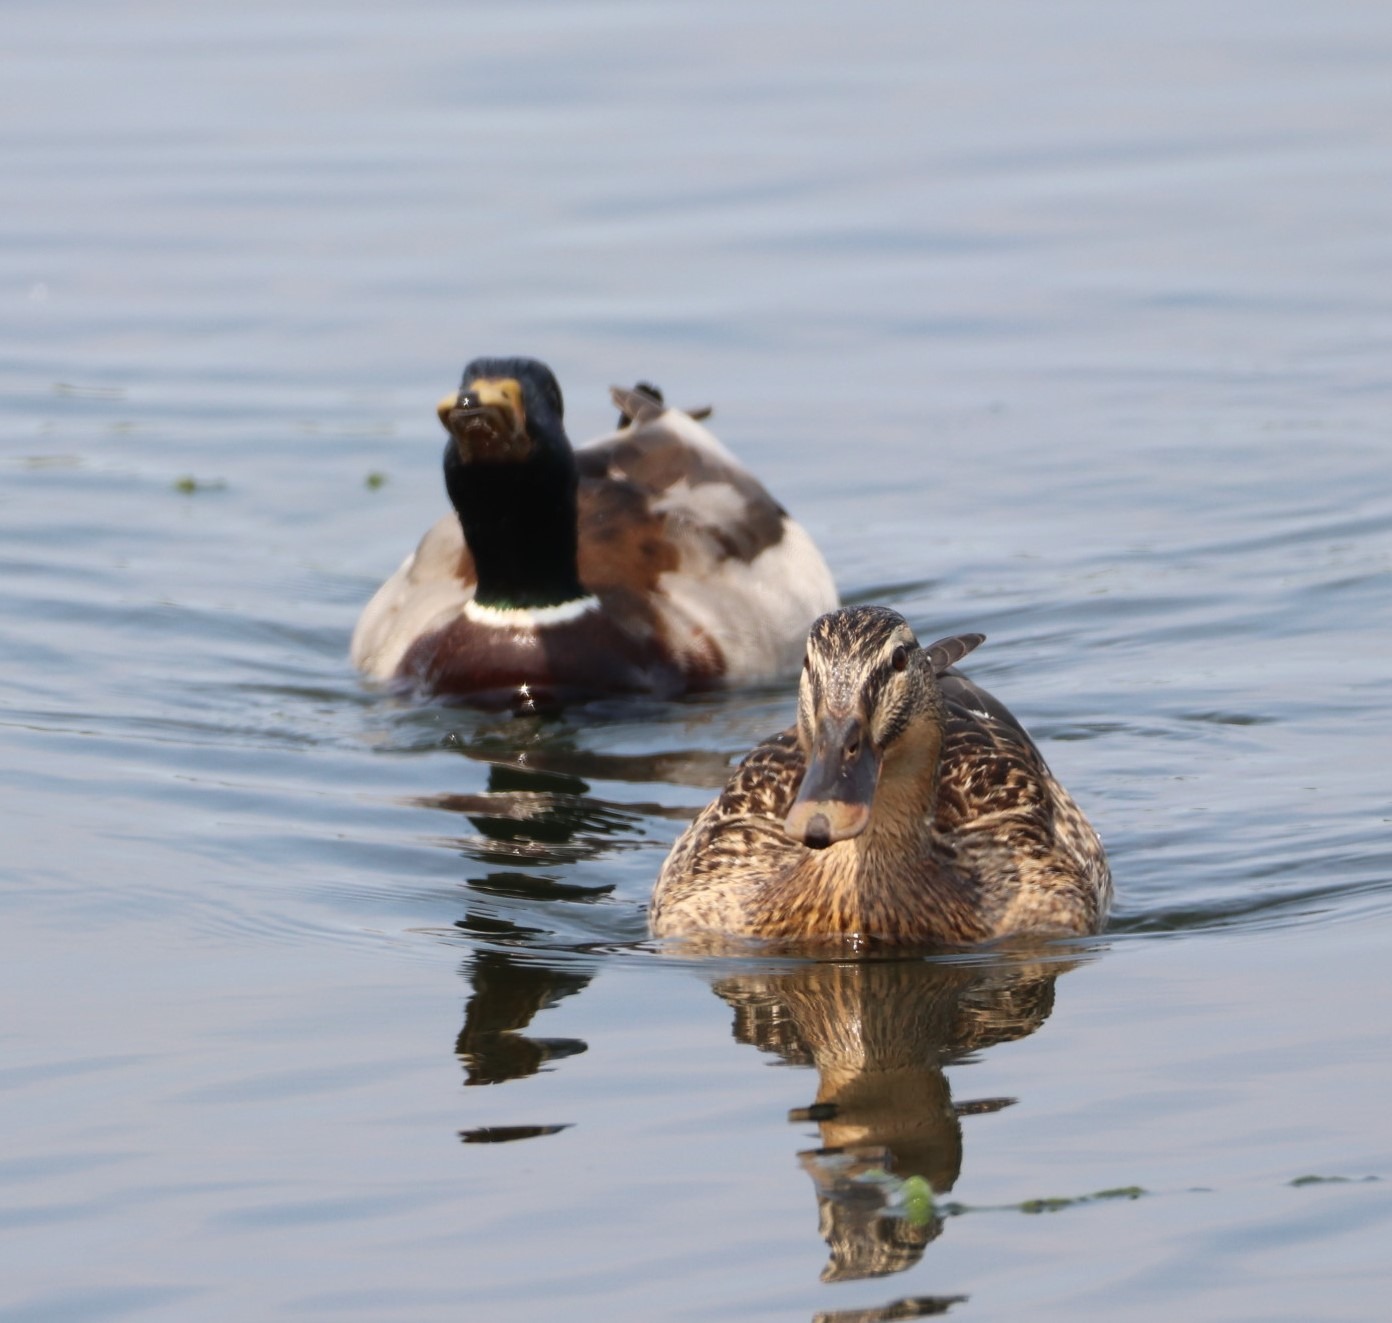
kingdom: Animalia
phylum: Chordata
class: Aves
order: Anseriformes
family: Anatidae
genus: Anas
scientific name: Anas platyrhynchos
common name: Gråand
